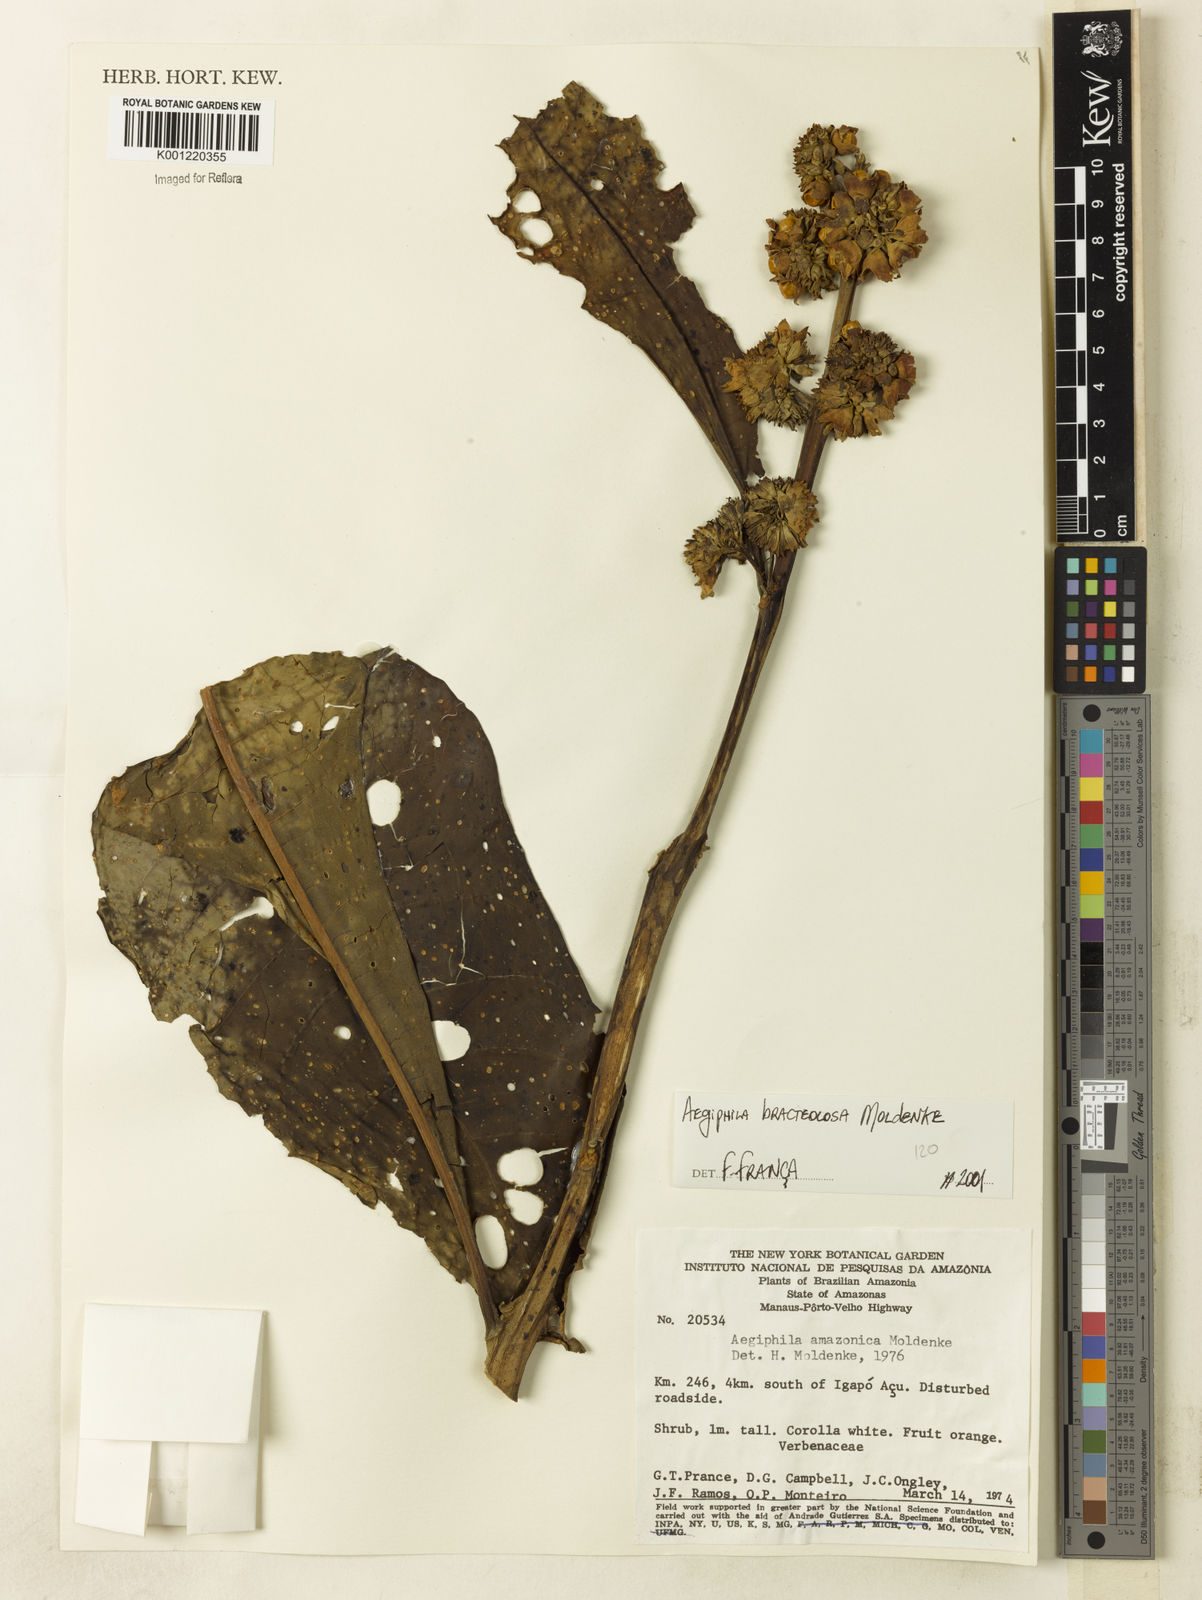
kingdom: Plantae
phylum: Tracheophyta
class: Magnoliopsida
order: Lamiales
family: Lamiaceae
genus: Aegiphila
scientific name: Aegiphila bracteolosa
